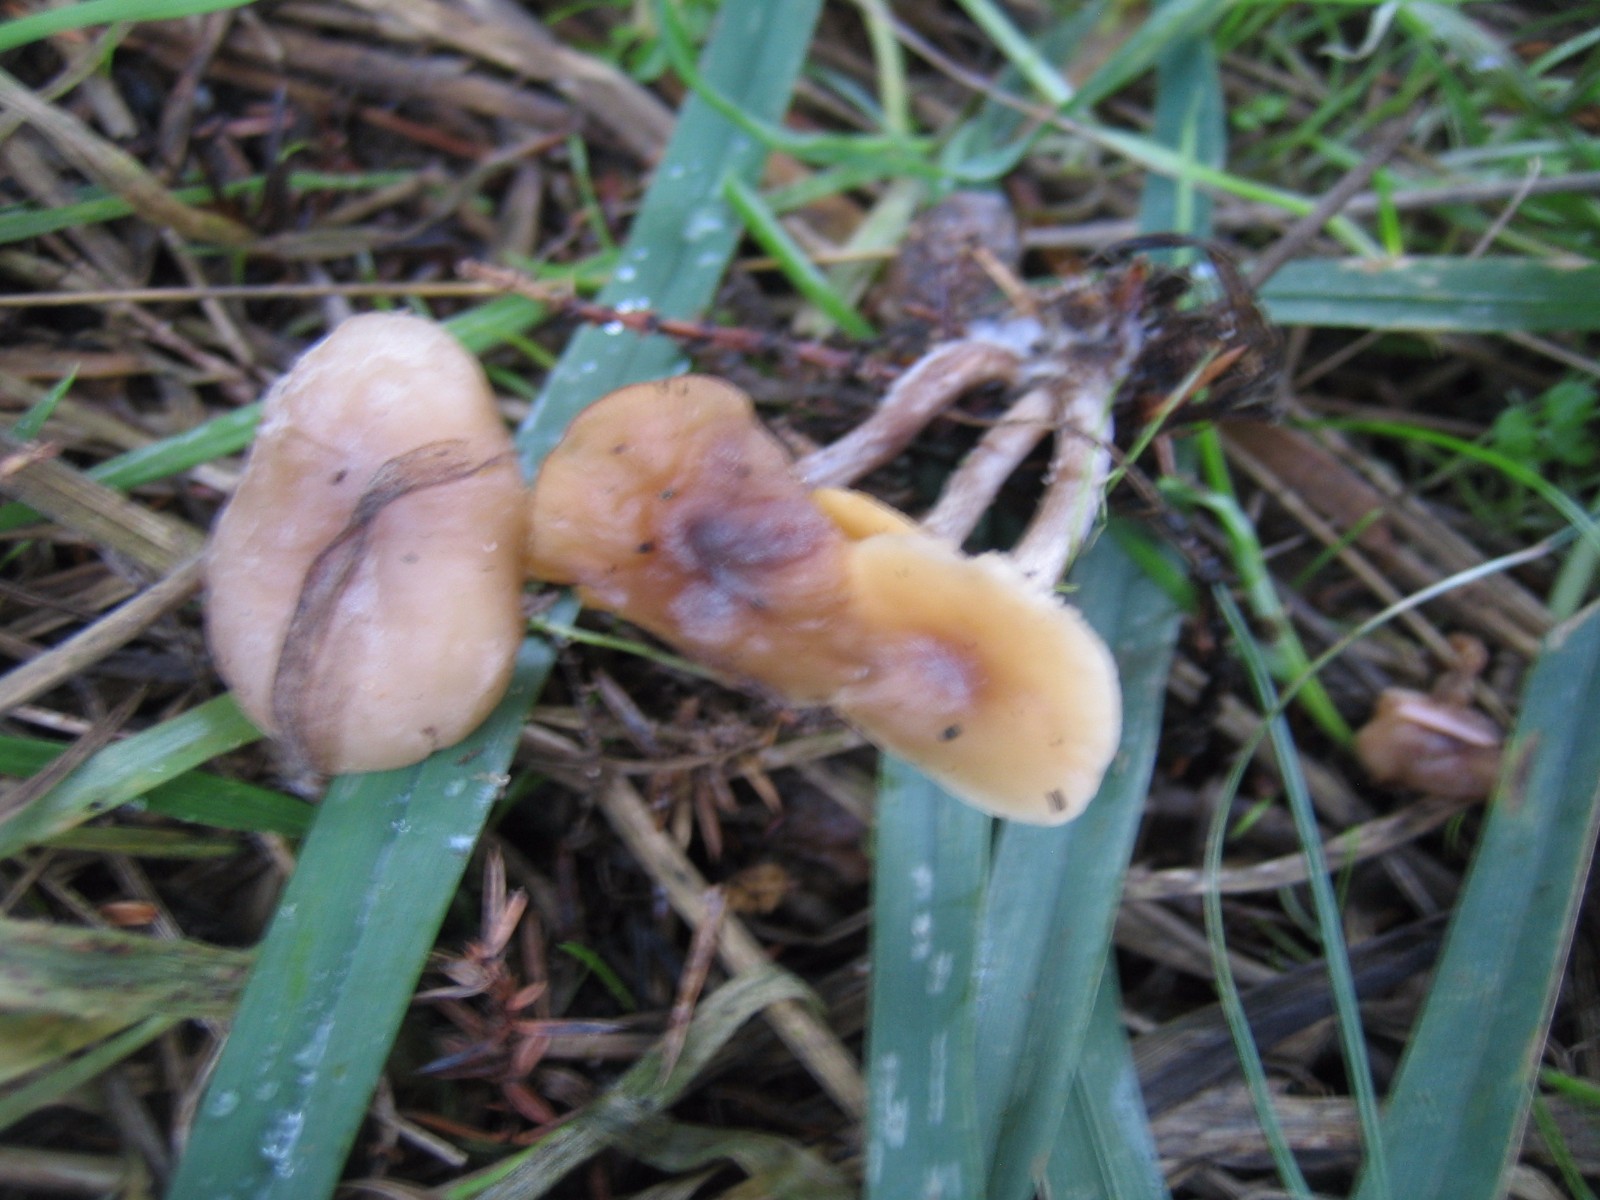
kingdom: Fungi
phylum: Basidiomycota
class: Agaricomycetes
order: Agaricales
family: Tricholomataceae
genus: Clitocybe
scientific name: Clitocybe fragrans
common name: vellugtende tragthat
